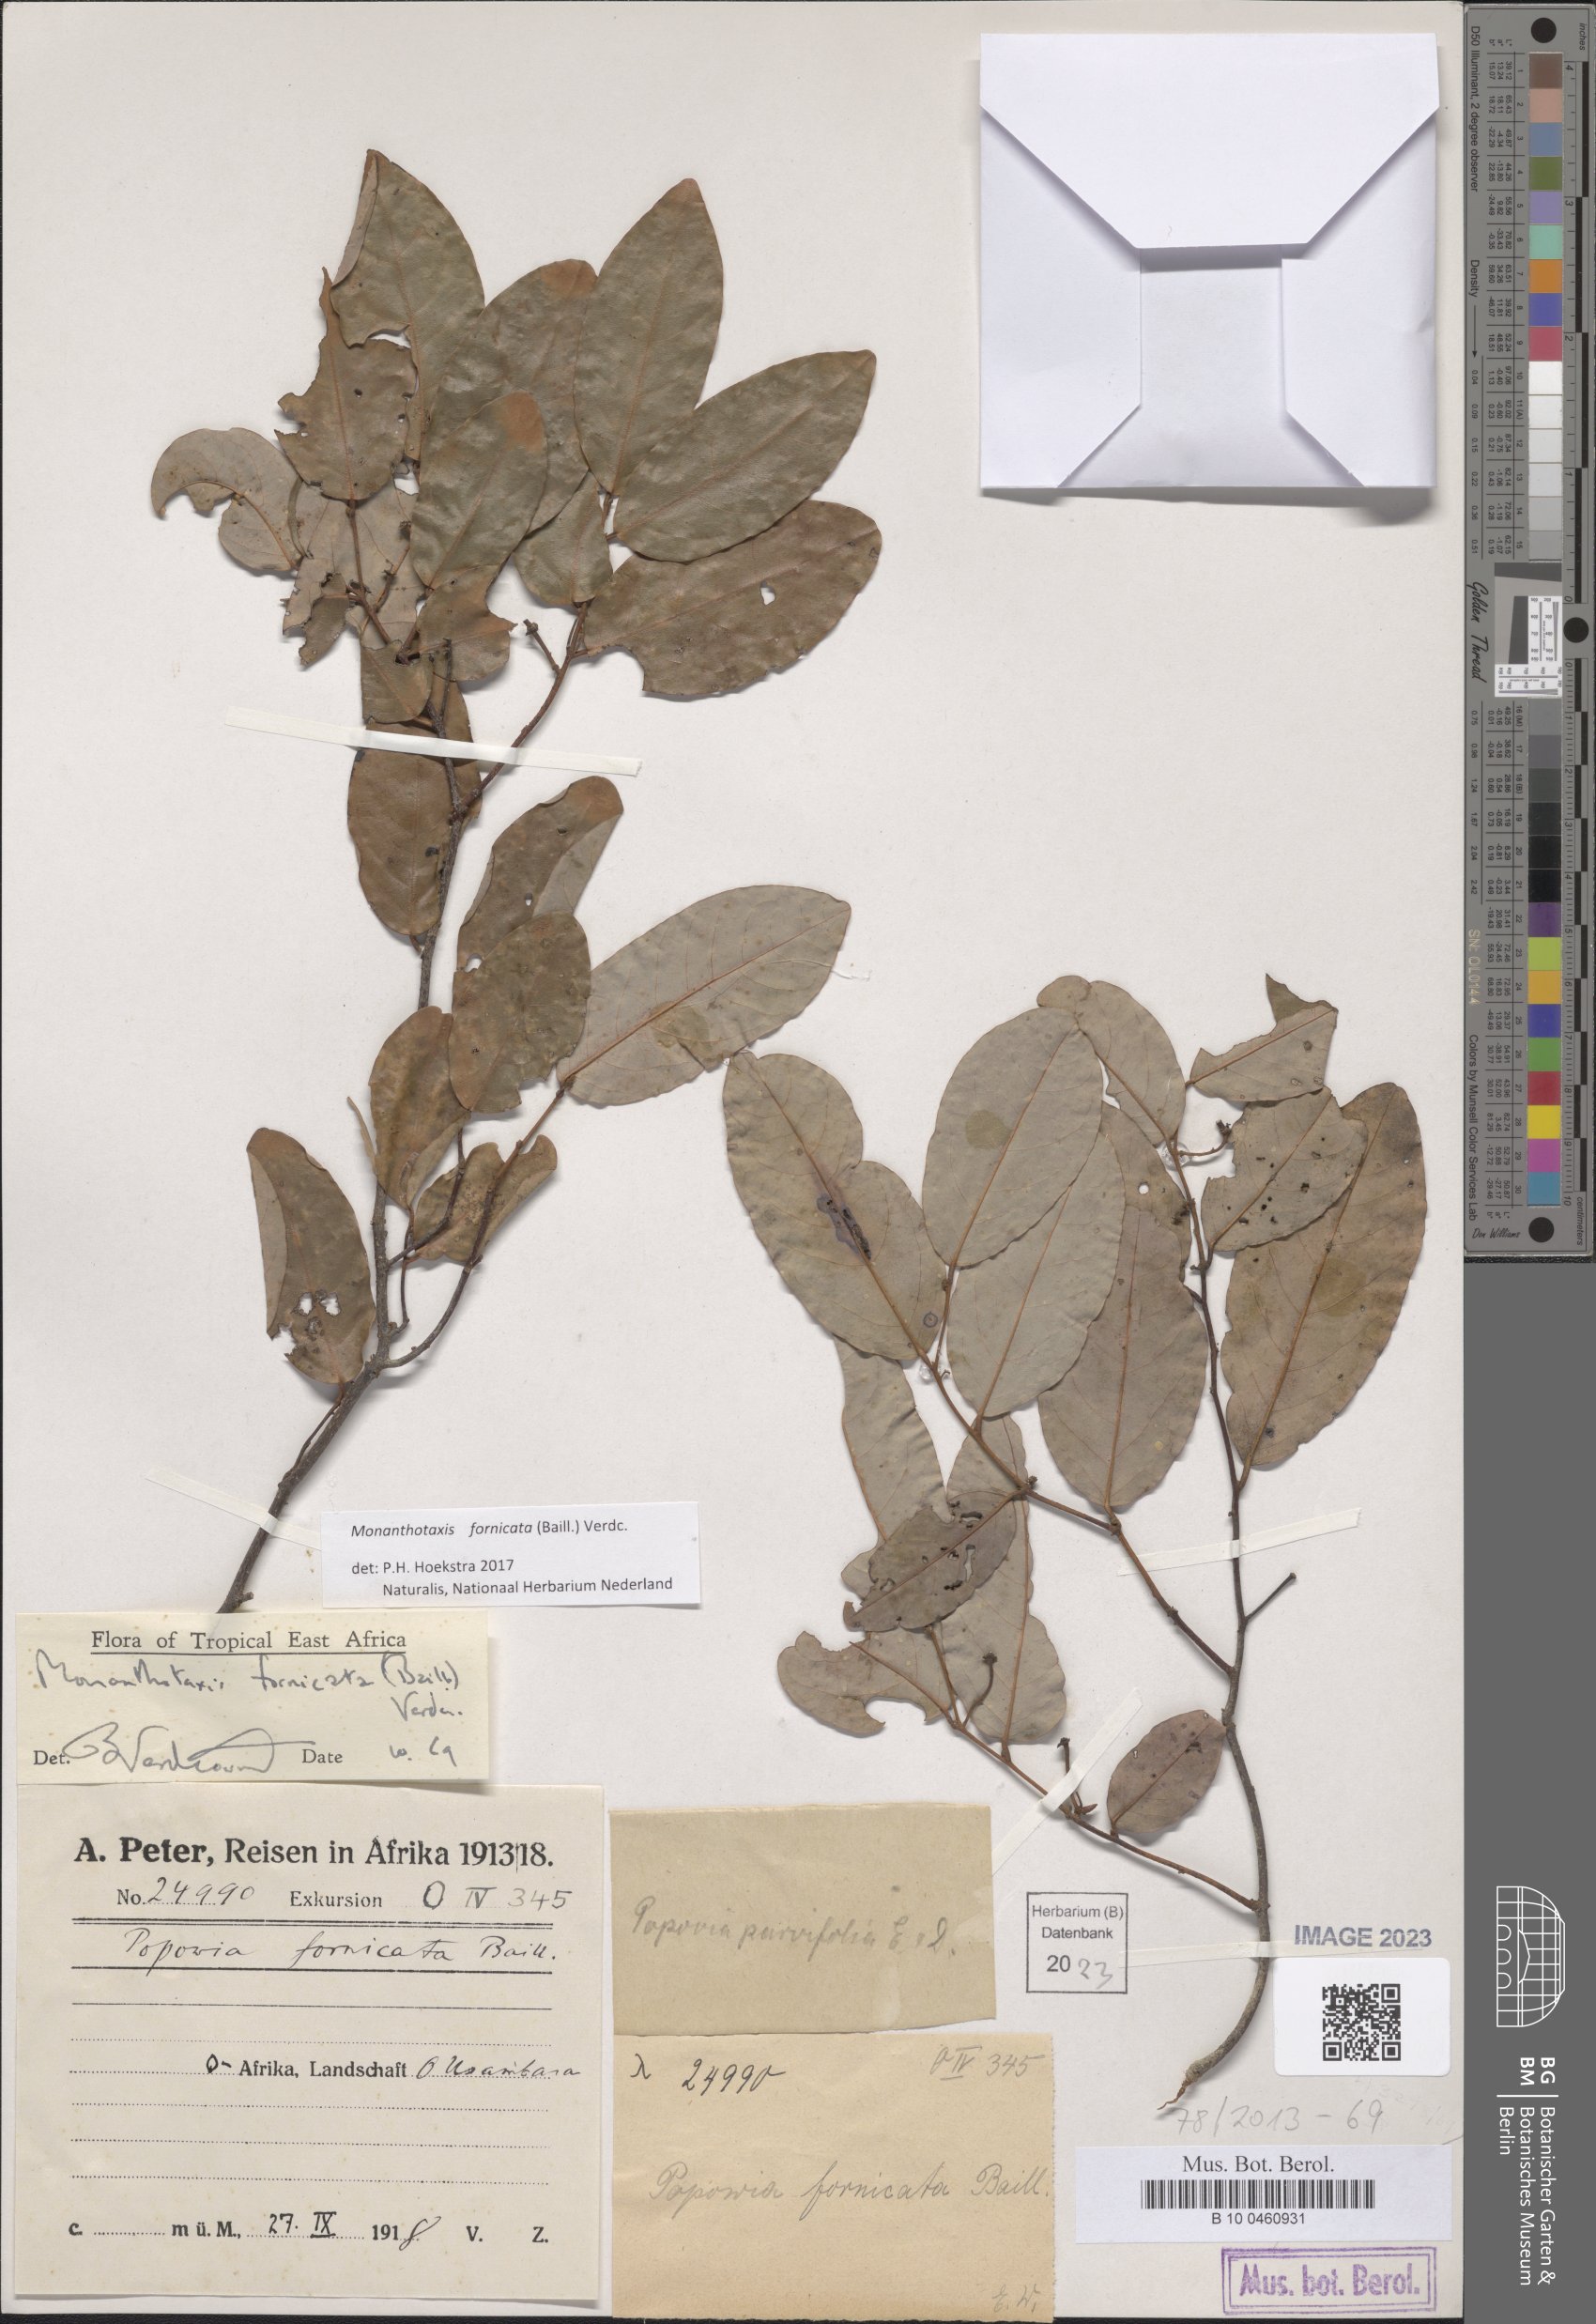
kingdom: Plantae
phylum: Tracheophyta
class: Magnoliopsida
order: Magnoliales
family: Annonaceae
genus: Monanthotaxis
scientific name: Monanthotaxis fornicata
